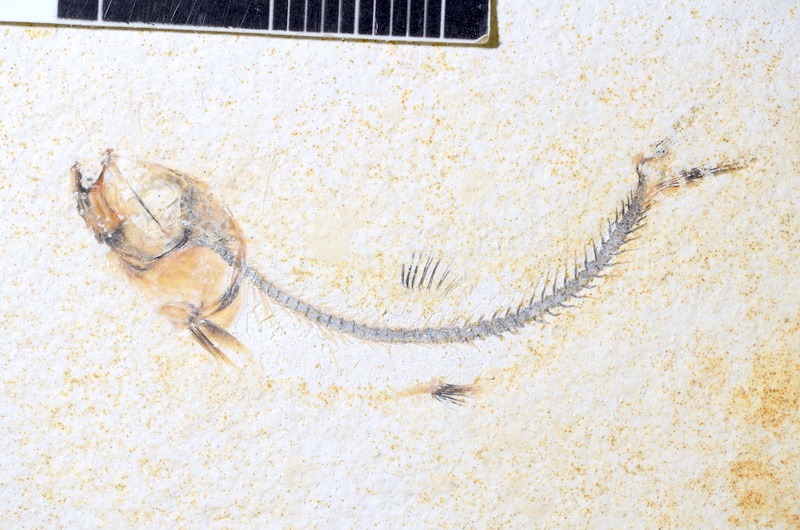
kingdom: Animalia
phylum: Chordata
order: Salmoniformes
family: Orthogonikleithridae
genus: Orthogonikleithrus
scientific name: Orthogonikleithrus hoelli
